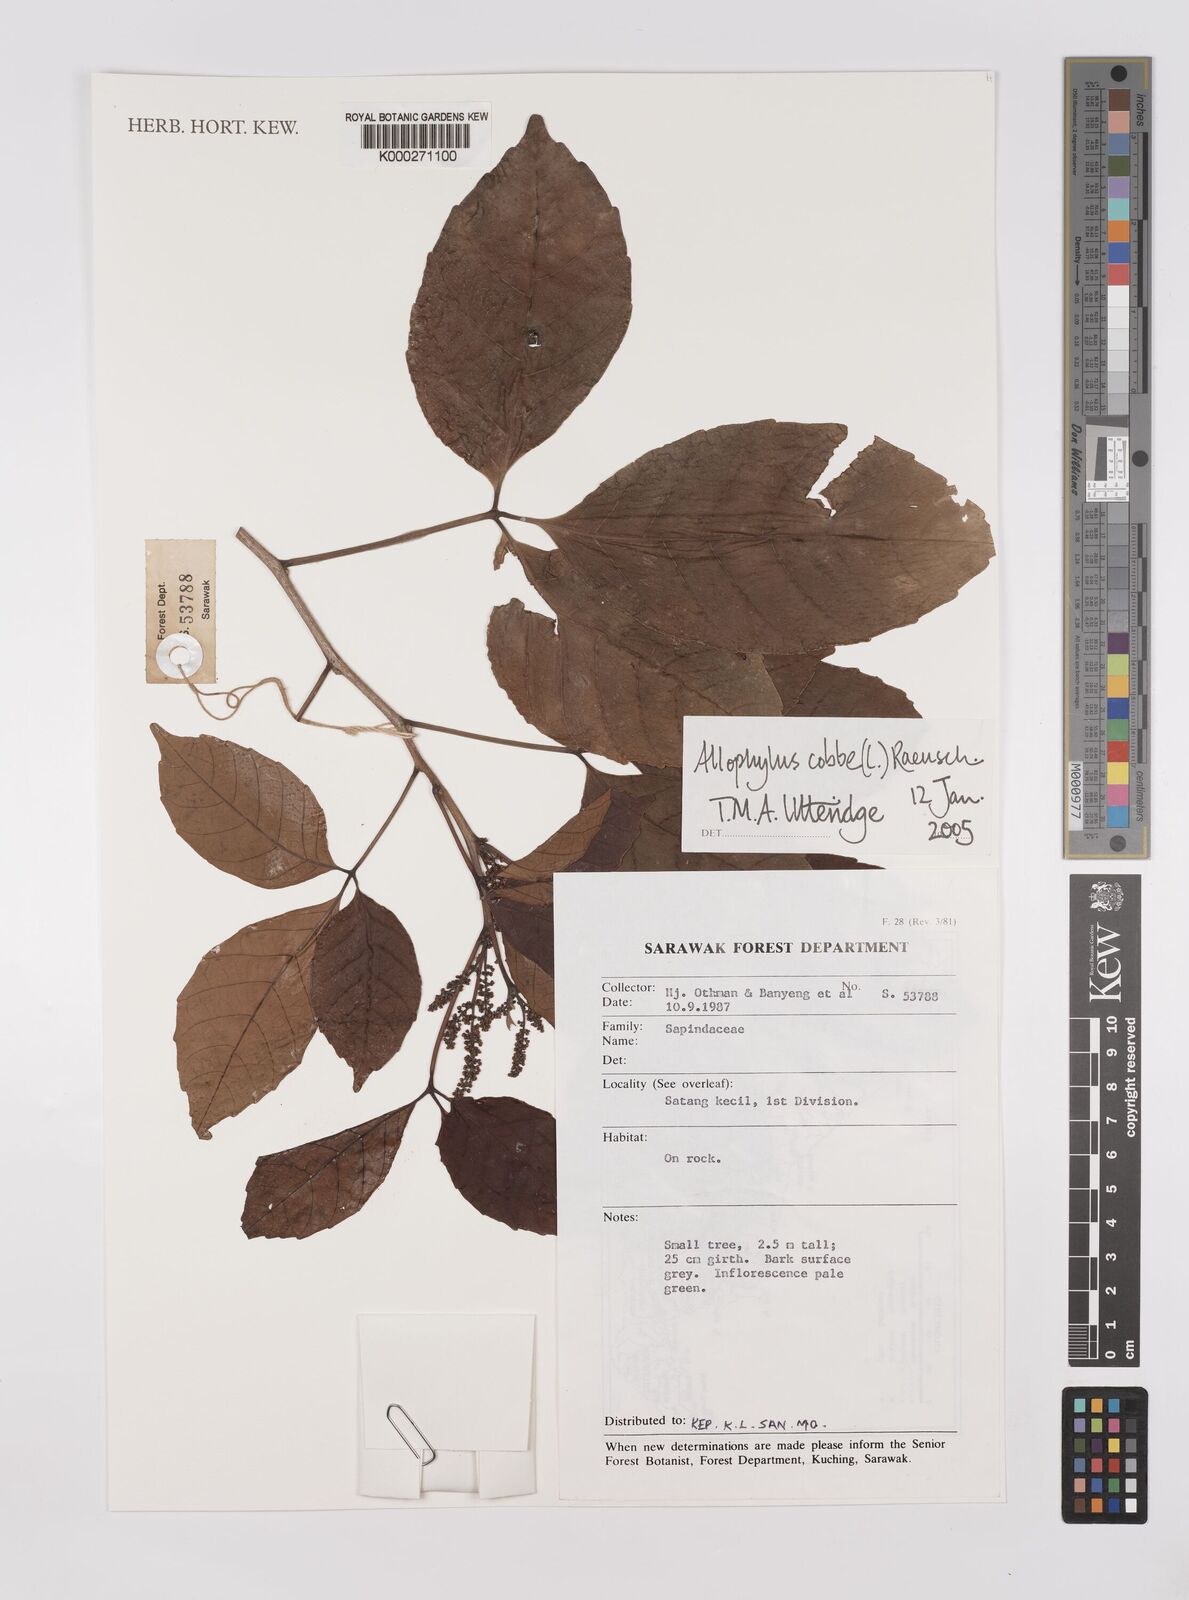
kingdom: Plantae
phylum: Tracheophyta
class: Magnoliopsida
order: Sapindales
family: Sapindaceae
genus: Allophylus
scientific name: Allophylus
